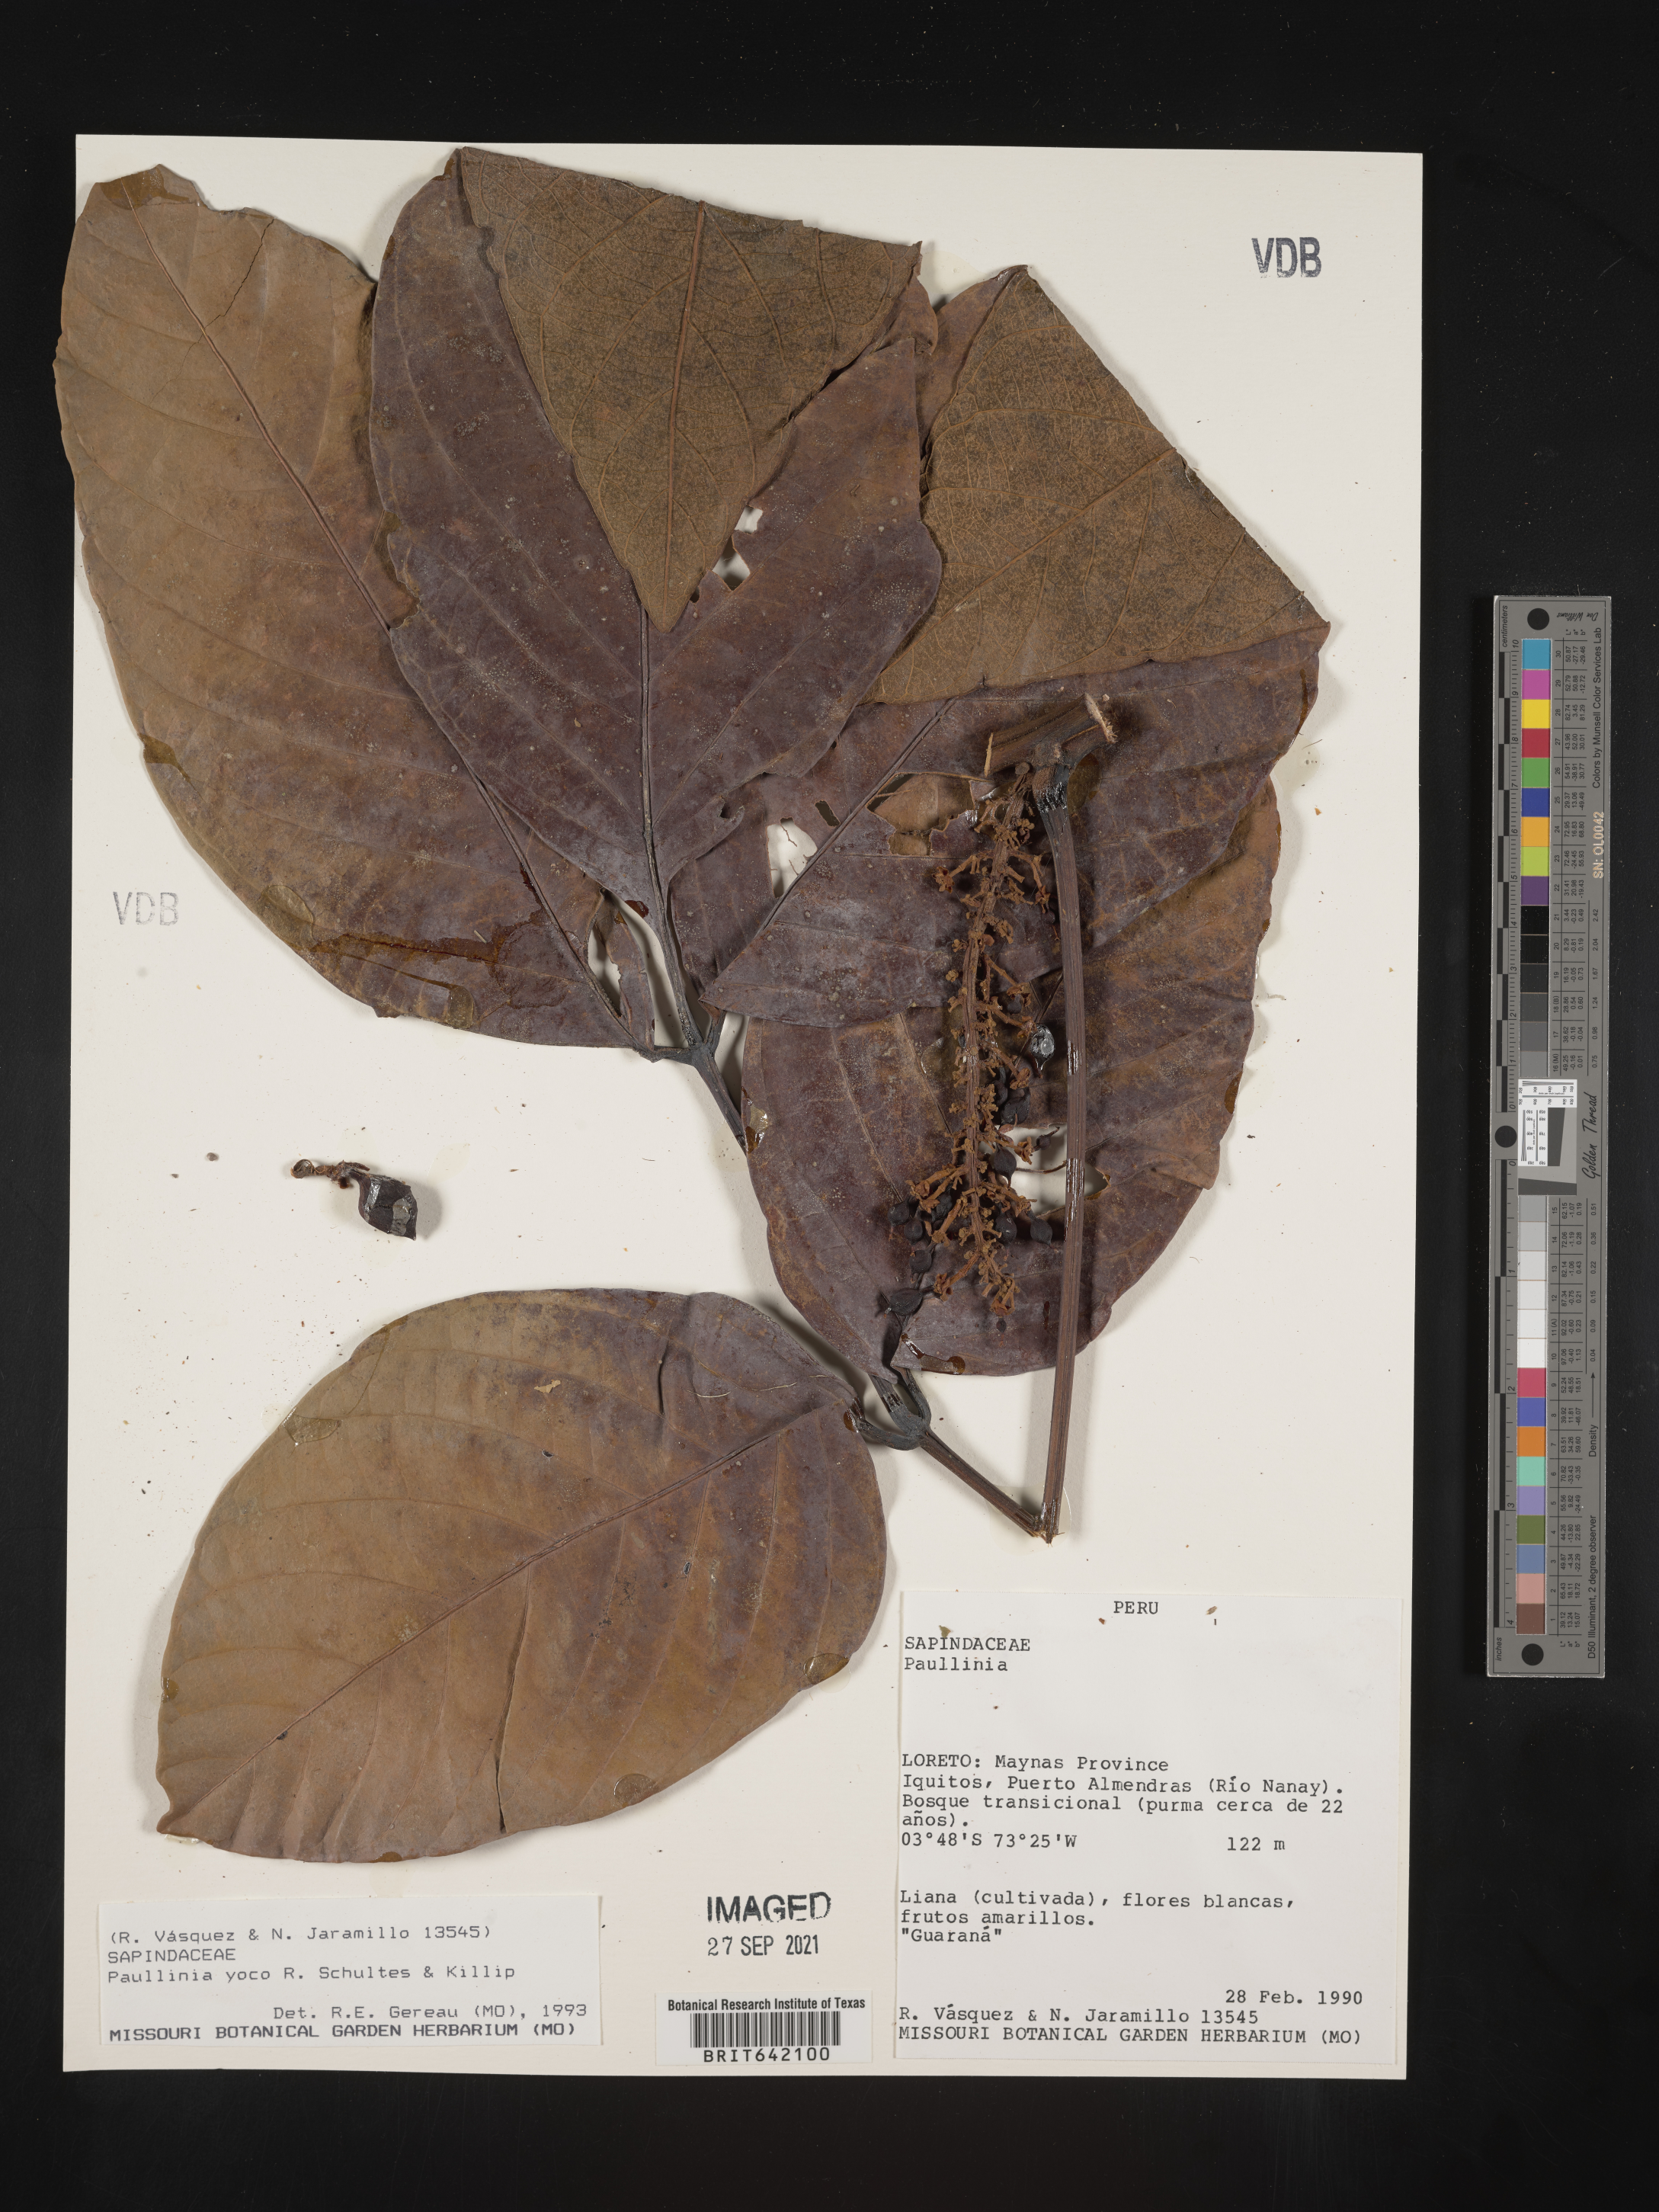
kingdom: Plantae
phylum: Tracheophyta
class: Magnoliopsida
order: Sapindales
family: Sapindaceae
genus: Paullinia
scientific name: Paullinia
